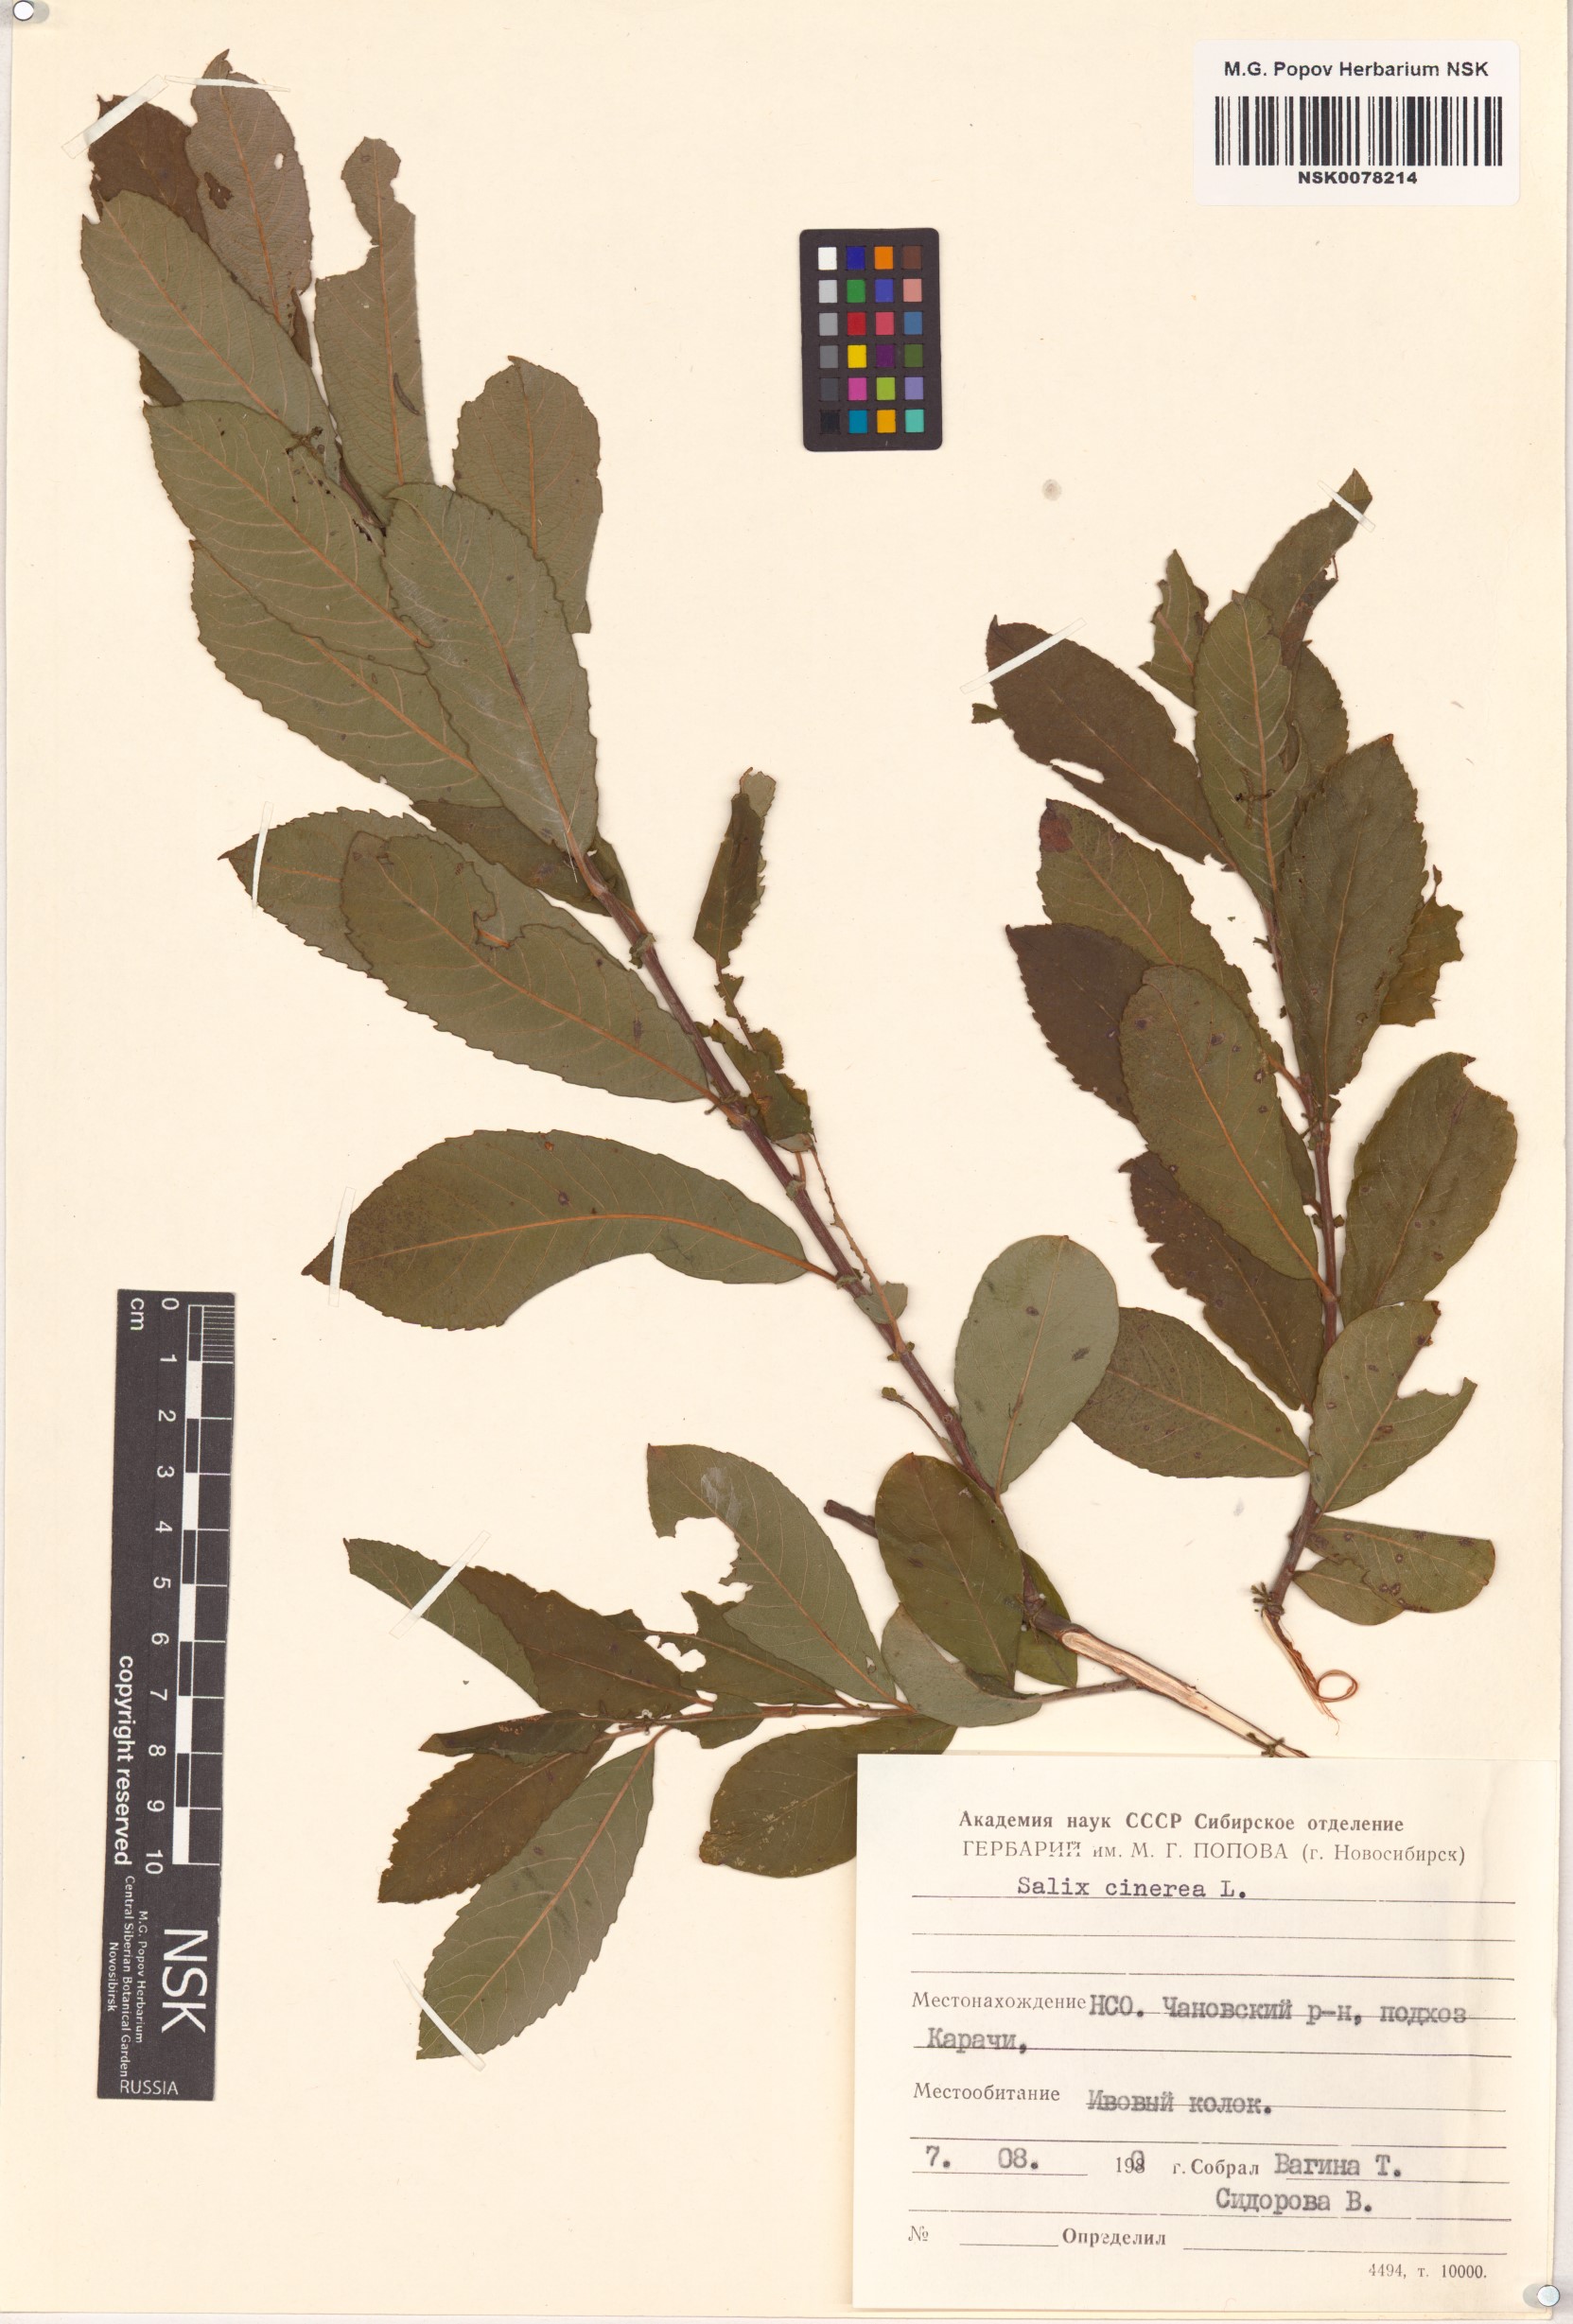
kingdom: Plantae
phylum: Tracheophyta
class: Magnoliopsida
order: Malpighiales
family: Salicaceae
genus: Salix
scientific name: Salix cinerea
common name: Common sallow
